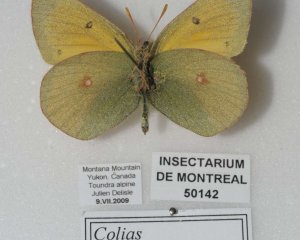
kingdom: Animalia
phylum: Arthropoda
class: Insecta
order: Lepidoptera
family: Pieridae
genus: Colias
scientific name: Colias hecla
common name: Hecla Sulphur
